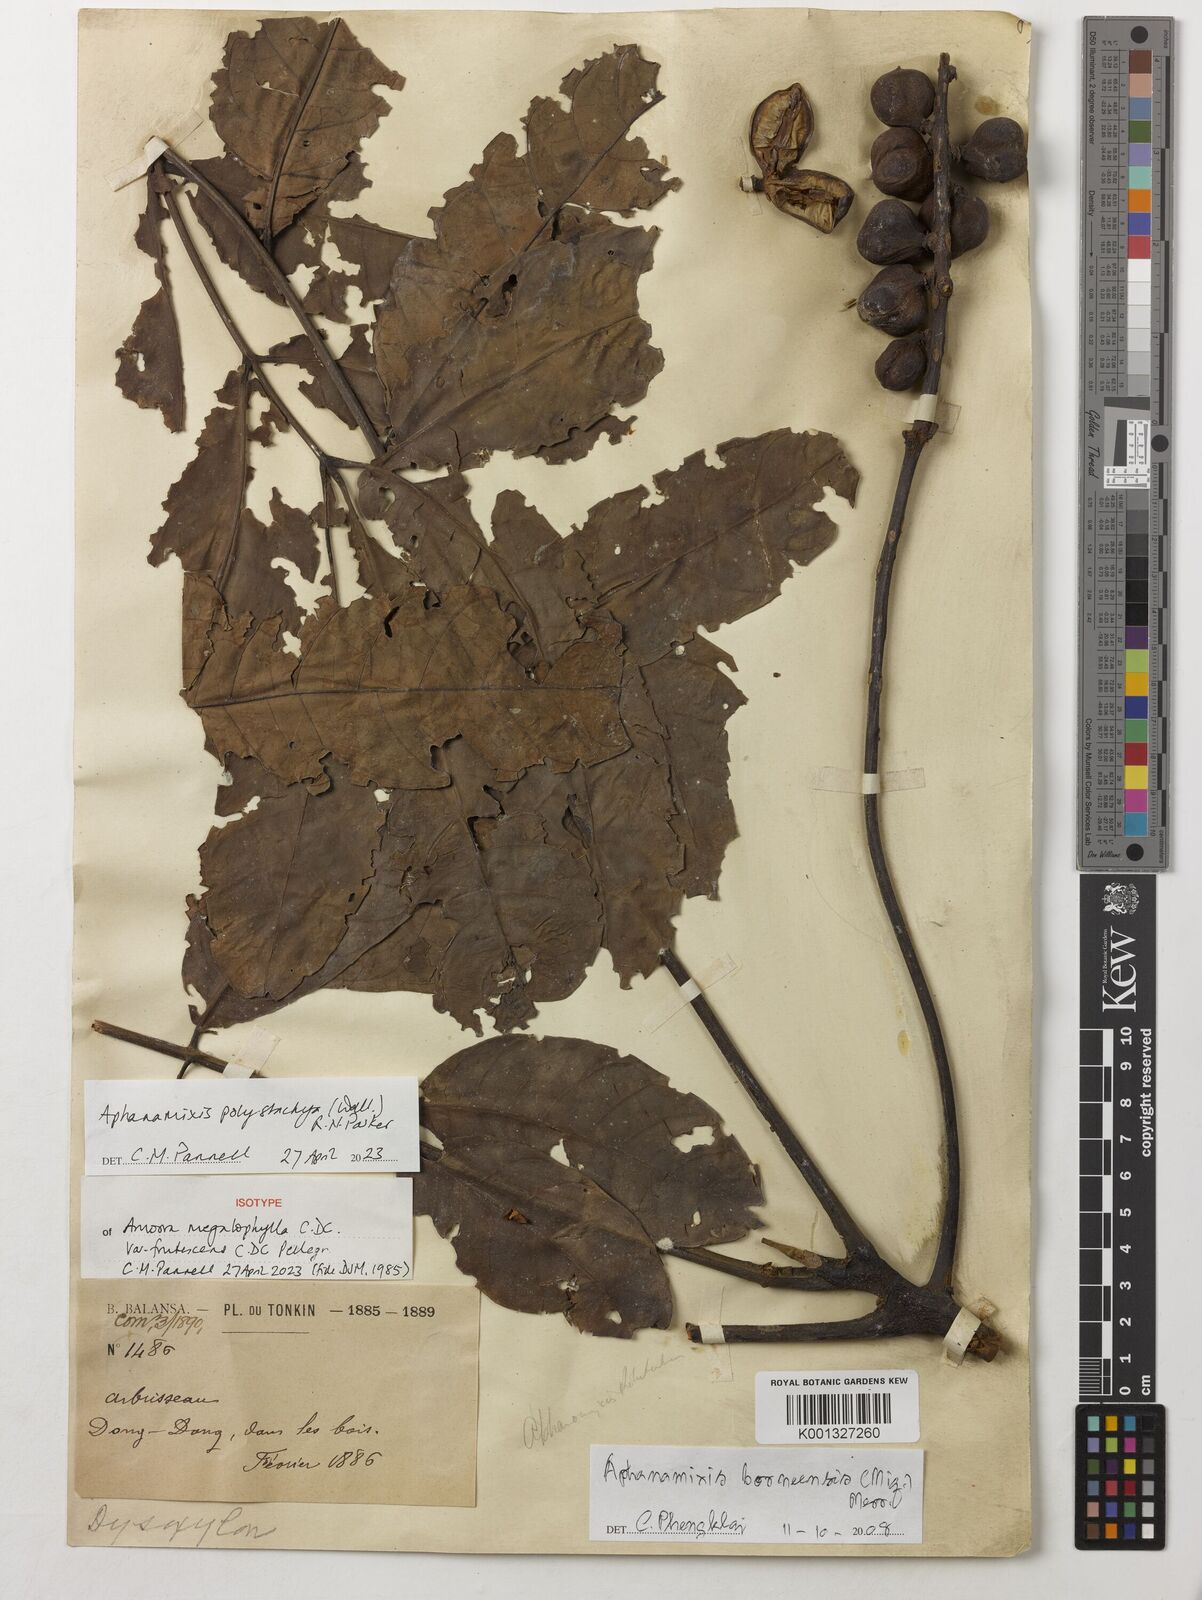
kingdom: Plantae
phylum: Tracheophyta
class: Magnoliopsida
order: Sapindales
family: Meliaceae
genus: Aphanamixis
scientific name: Aphanamixis polystachya
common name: Pithraj tree
